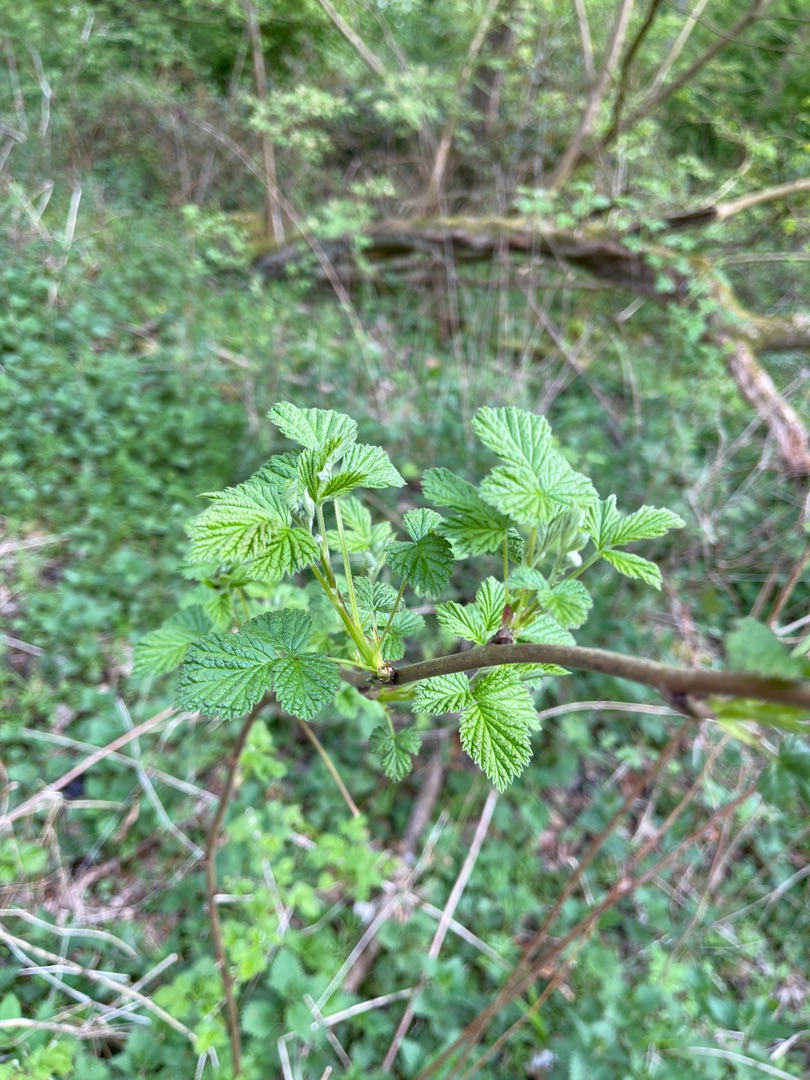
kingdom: Plantae
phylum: Tracheophyta
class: Magnoliopsida
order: Rosales
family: Rosaceae
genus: Rubus
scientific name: Rubus idaeus
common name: Hindbær
